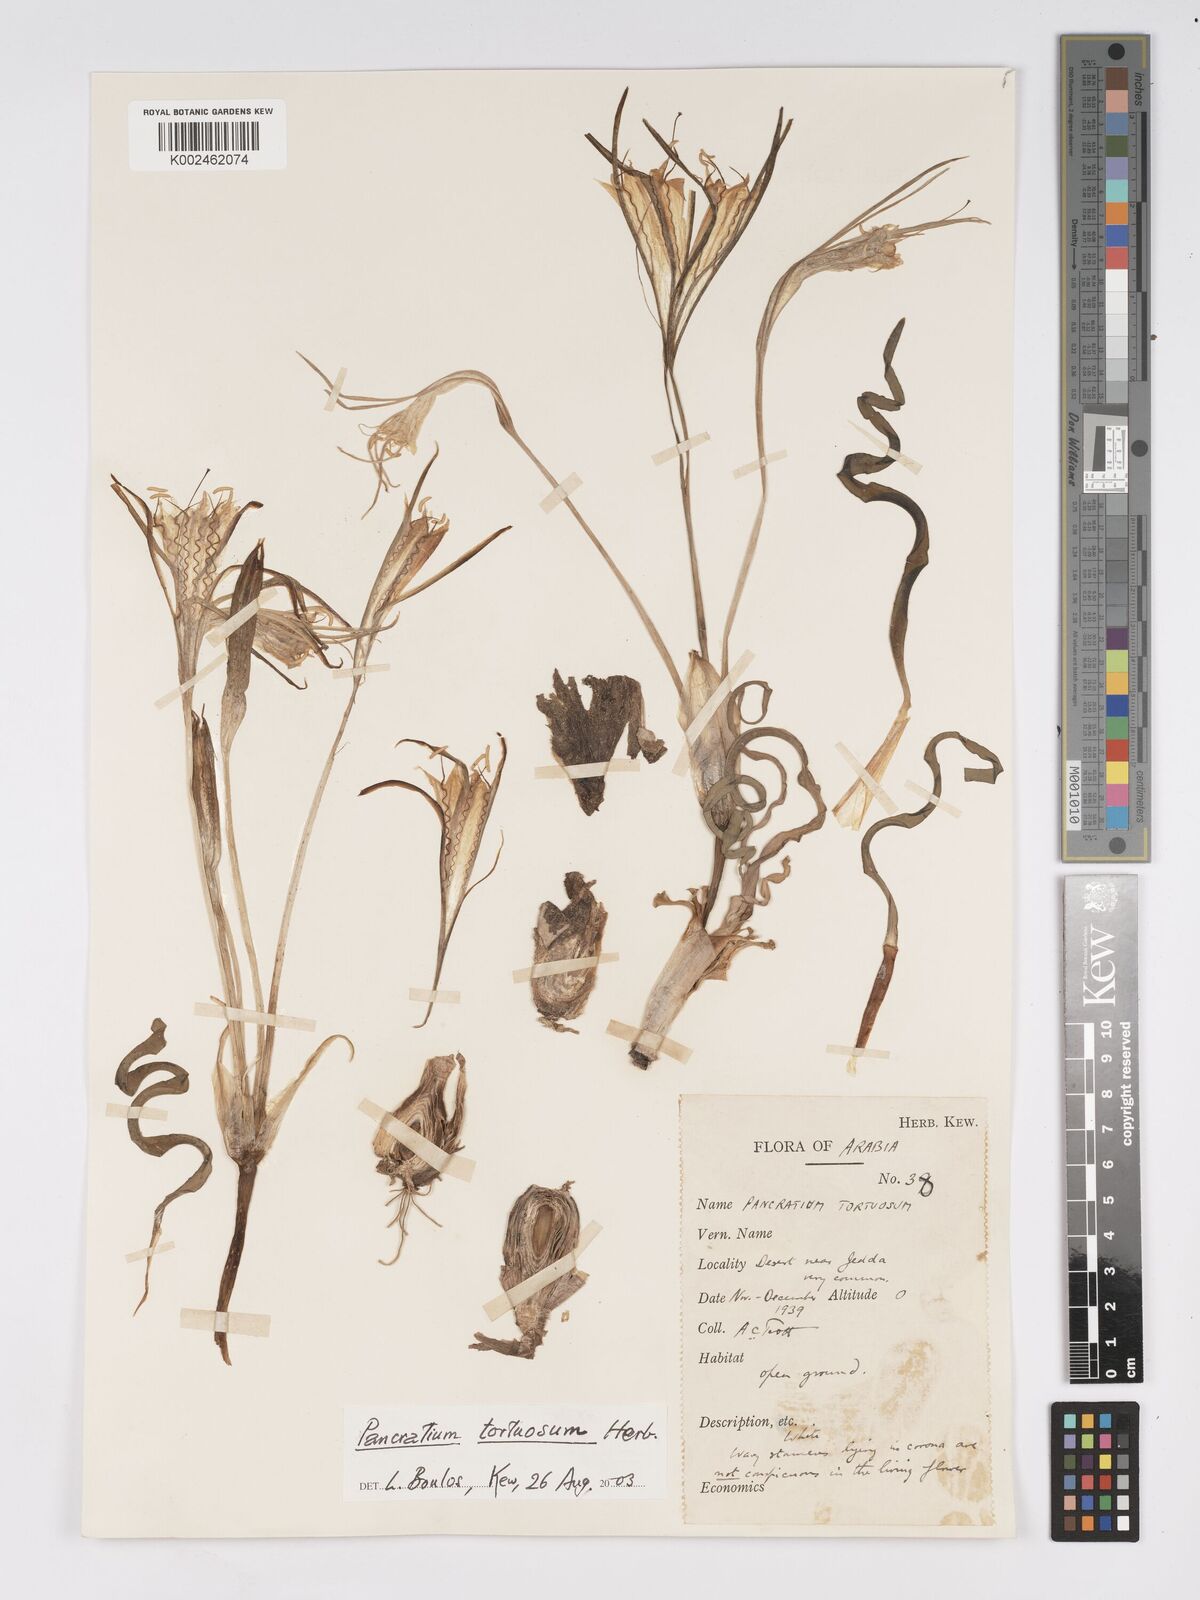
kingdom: Plantae
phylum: Tracheophyta
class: Liliopsida
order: Asparagales
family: Amaryllidaceae
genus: Pancratium
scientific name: Pancratium tortuosum
